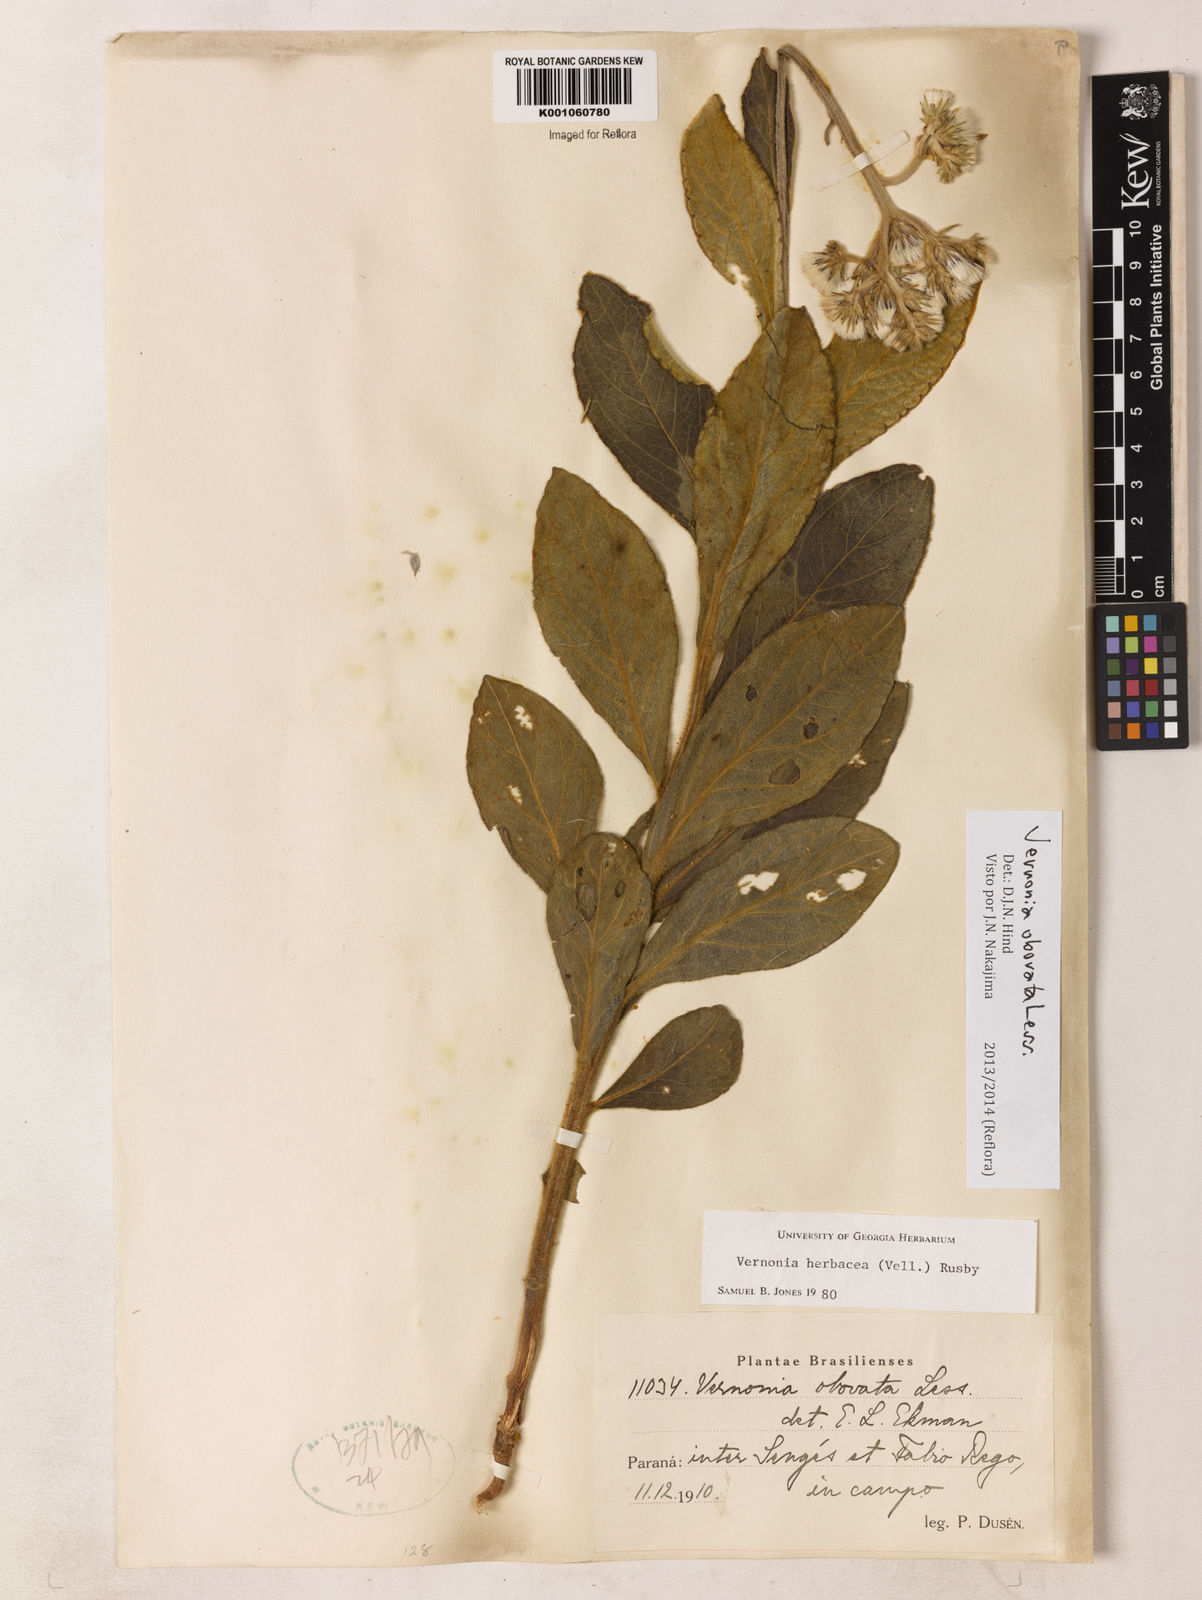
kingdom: Plantae
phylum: Tracheophyta
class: Magnoliopsida
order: Asterales
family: Asteraceae
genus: Chrysolaena
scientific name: Chrysolaena obovata
